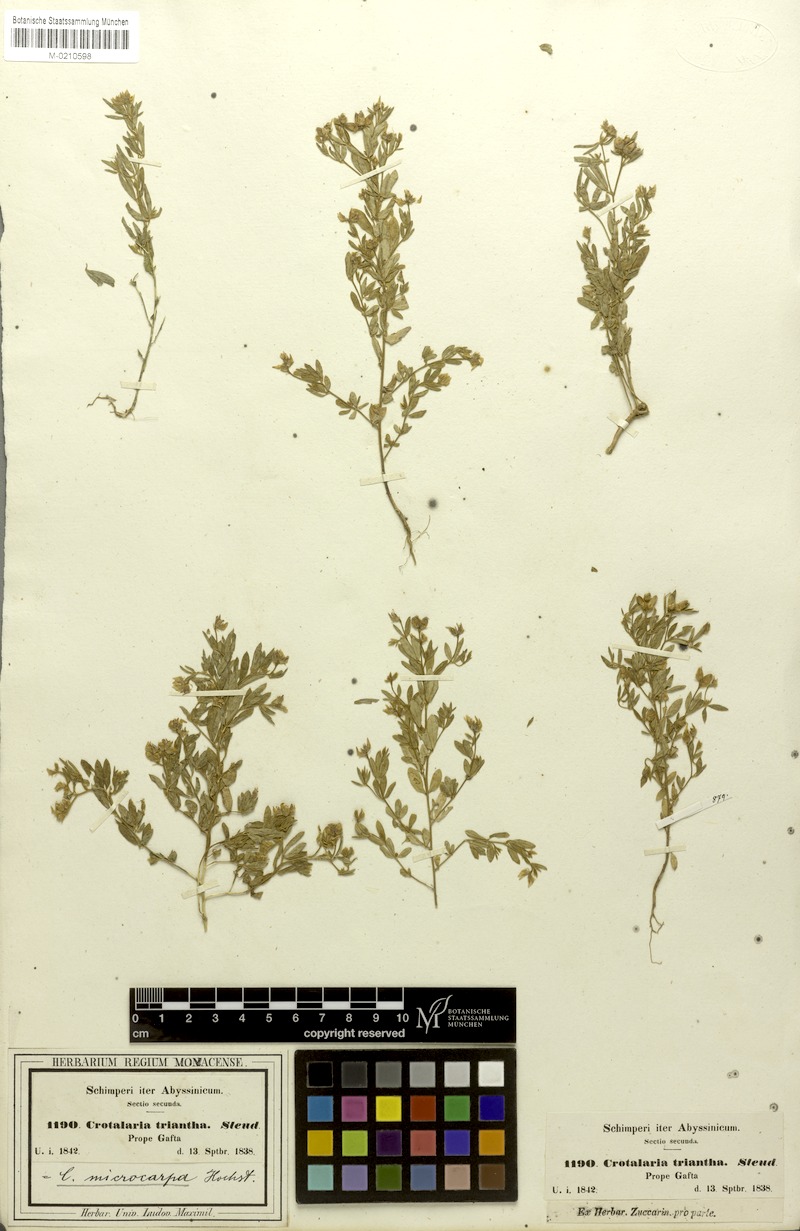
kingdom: Plantae
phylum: Tracheophyta
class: Magnoliopsida
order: Fabales
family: Fabaceae
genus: Crotalaria
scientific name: Crotalaria microcarpa
